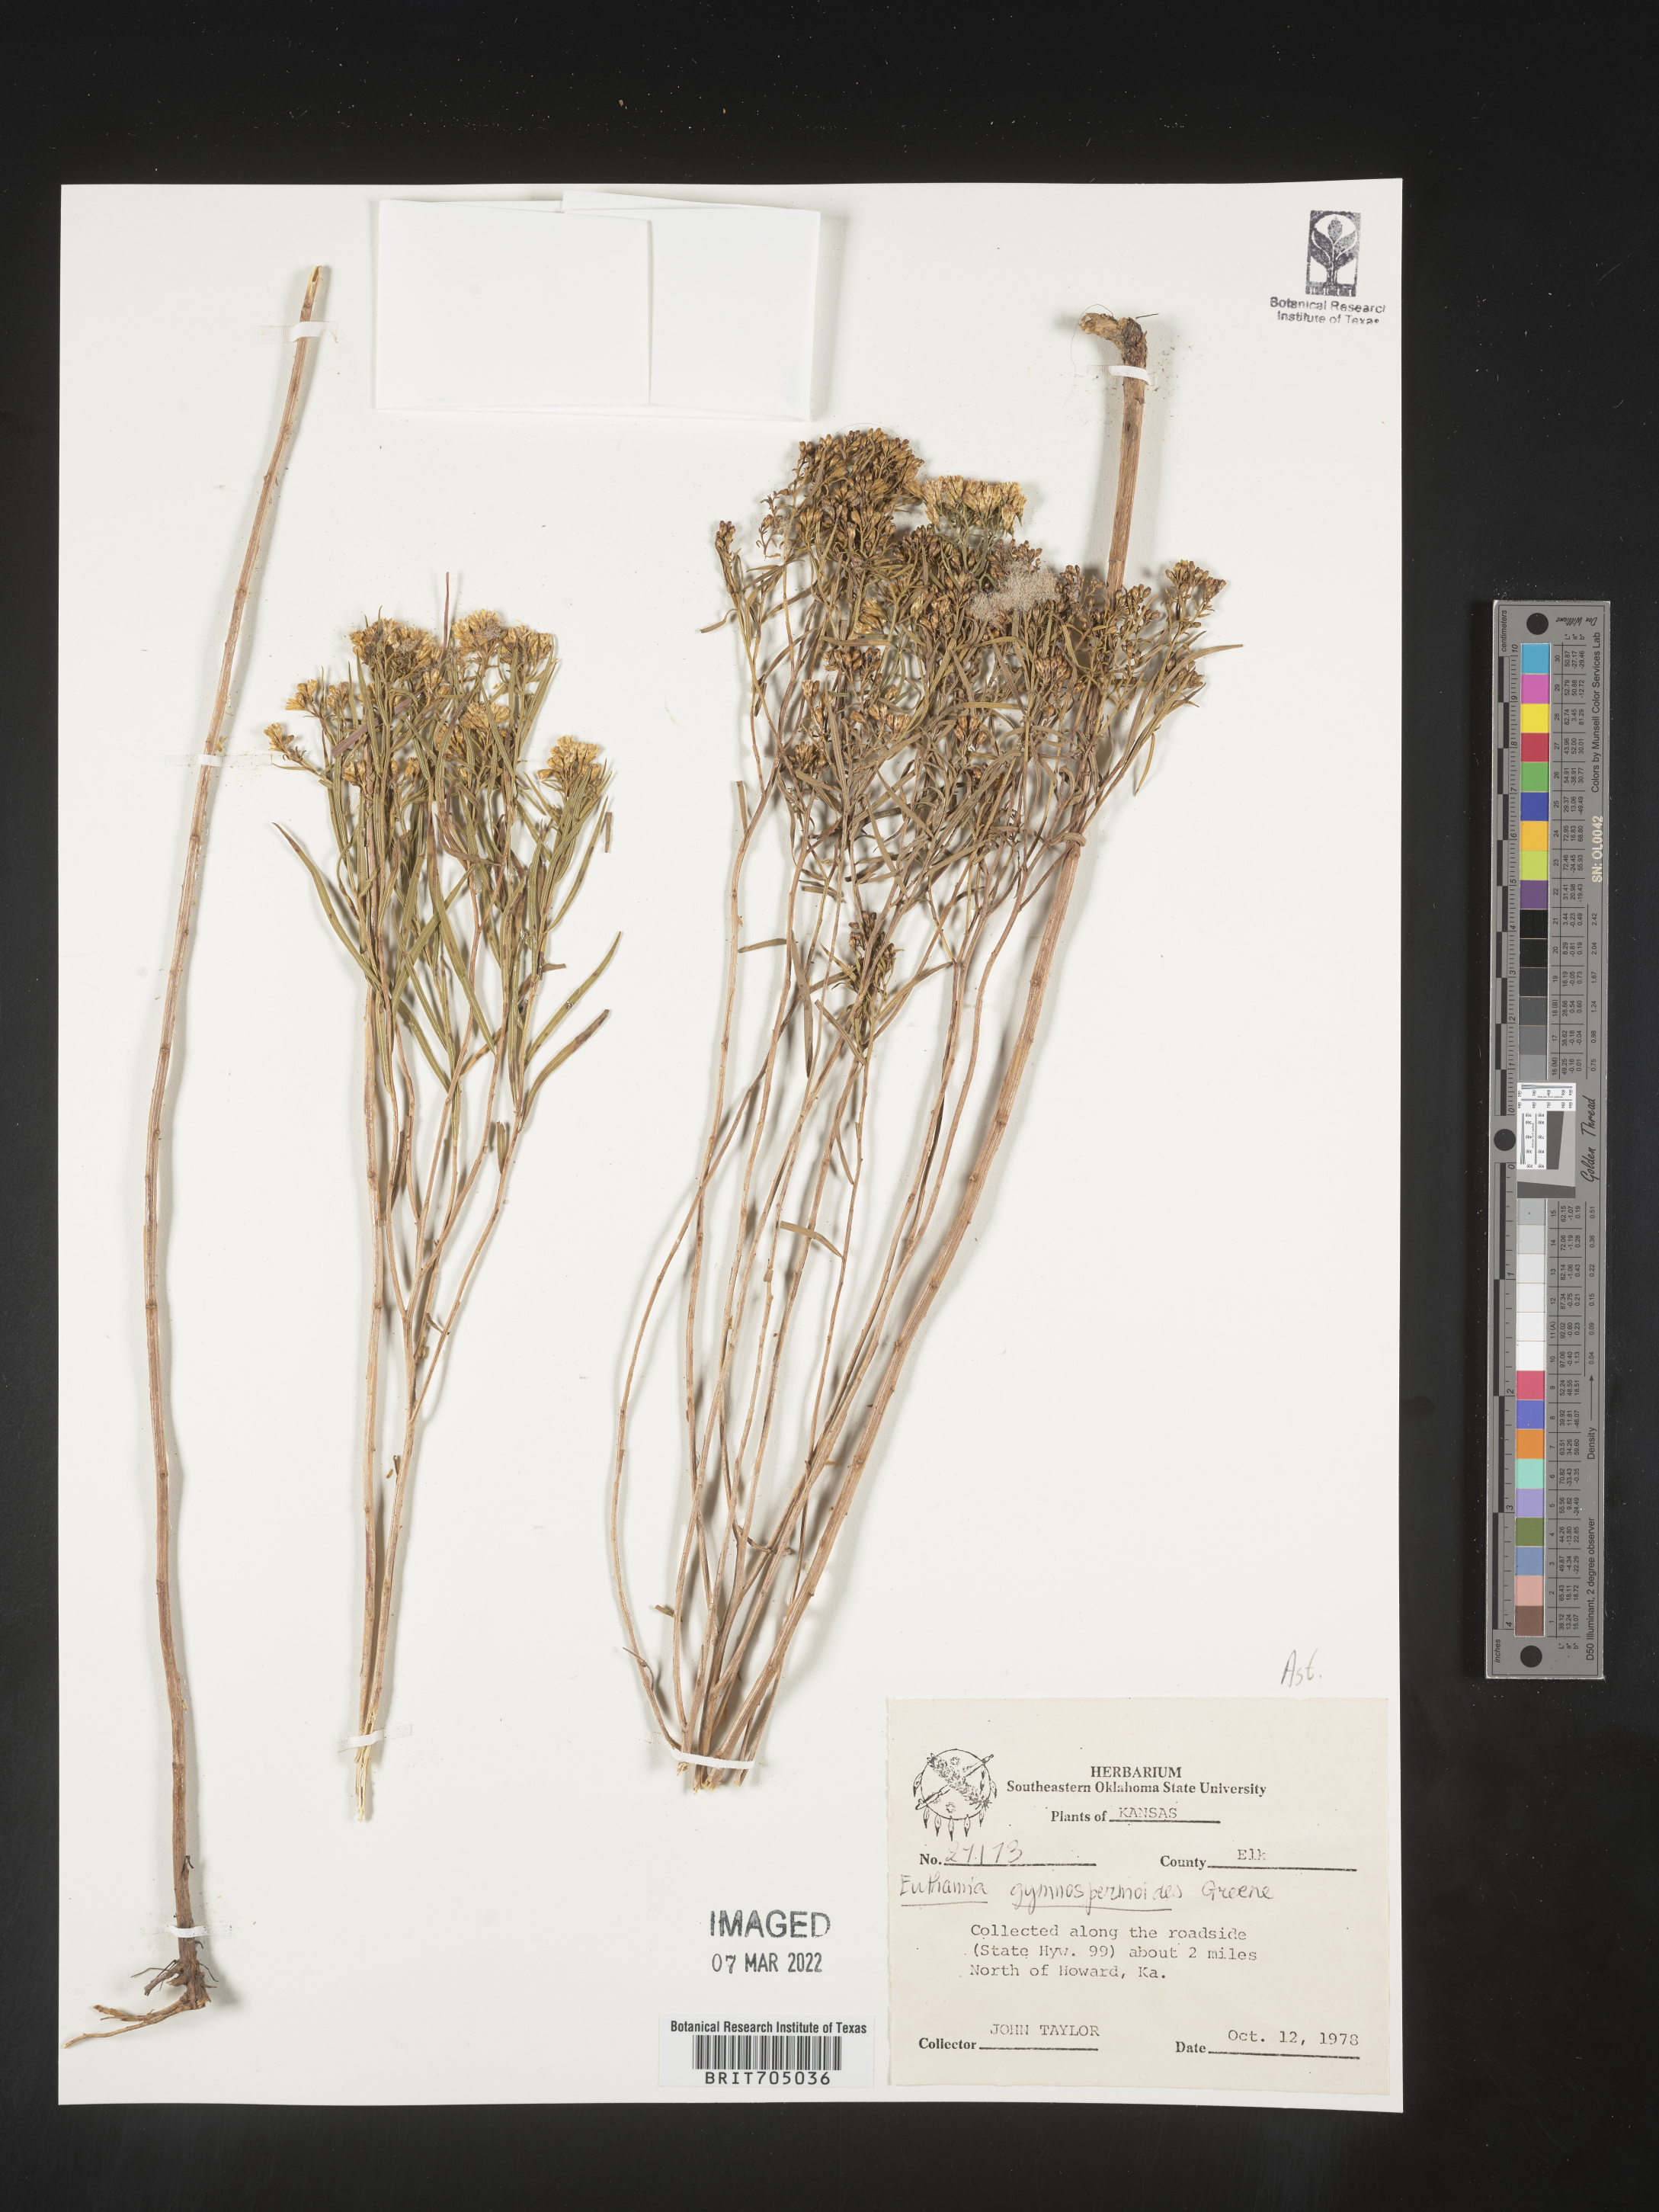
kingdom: Plantae
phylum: Tracheophyta
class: Magnoliopsida
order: Asterales
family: Asteraceae
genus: Euthamia
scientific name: Euthamia gymnospermoides
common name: Great plains goldentop
